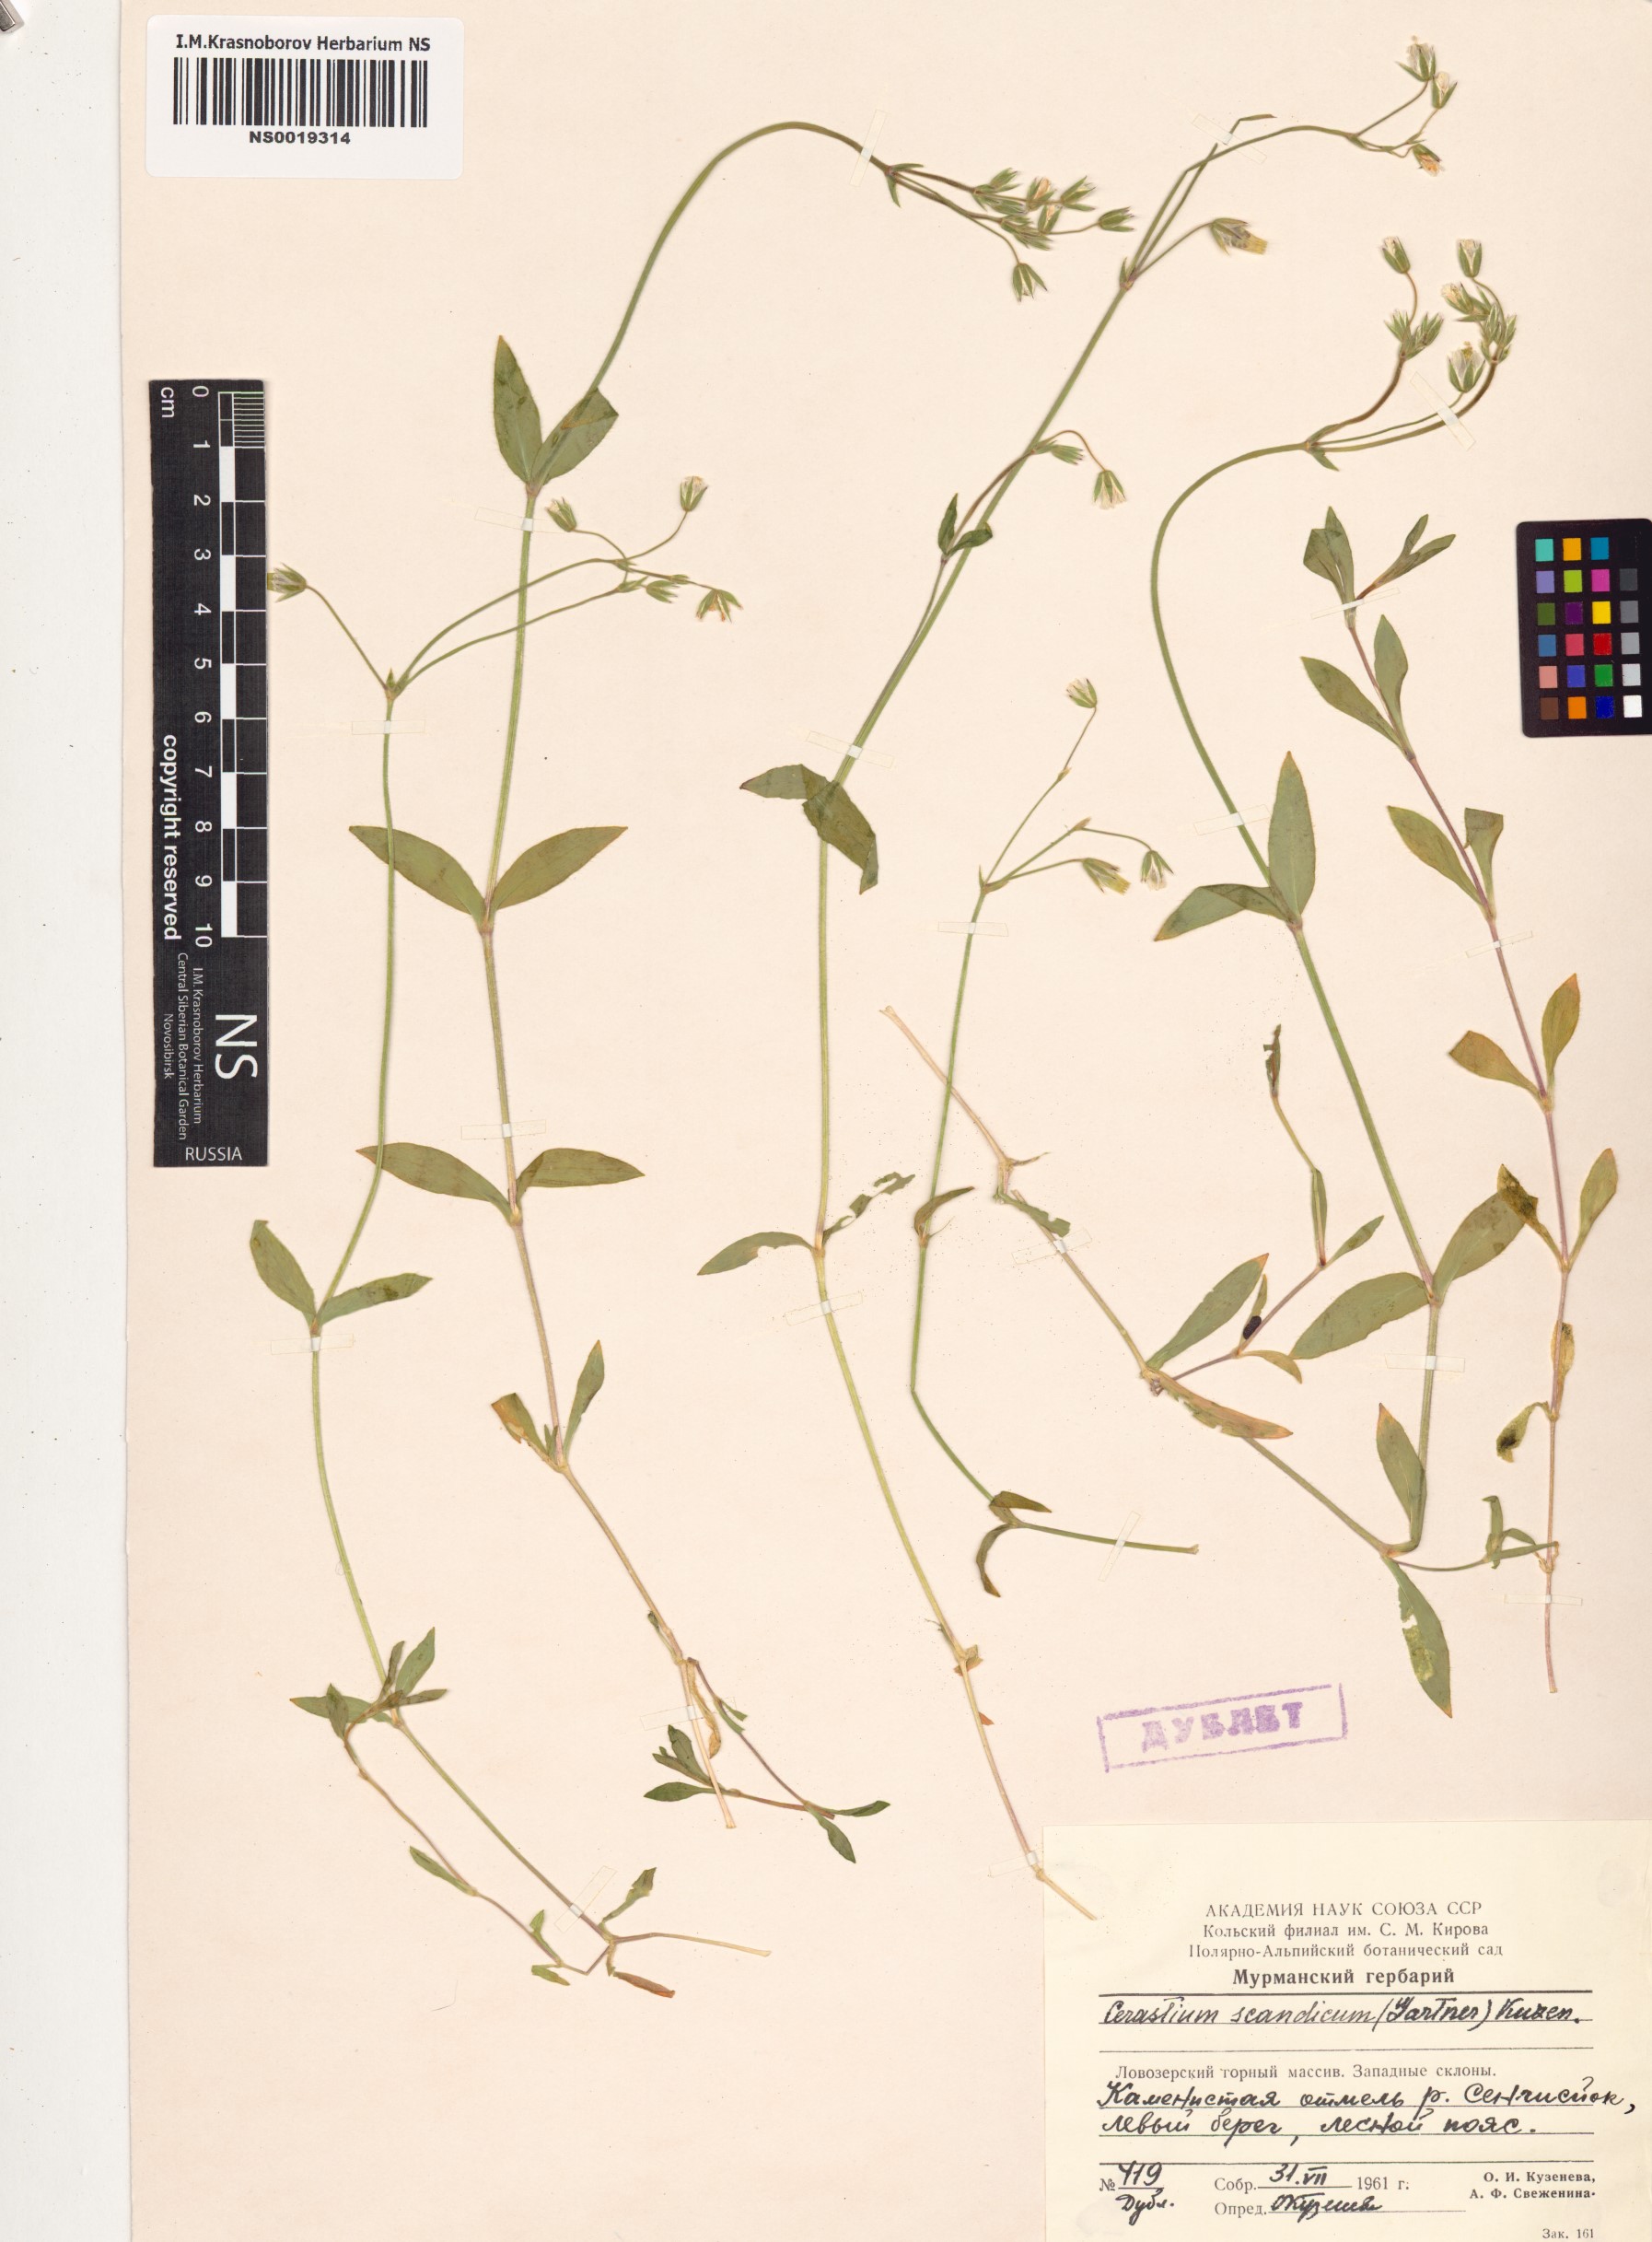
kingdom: Plantae
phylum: Tracheophyta
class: Magnoliopsida
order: Caryophyllales
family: Caryophyllaceae
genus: Cerastium
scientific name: Cerastium holosteoides
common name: Big chickweed
